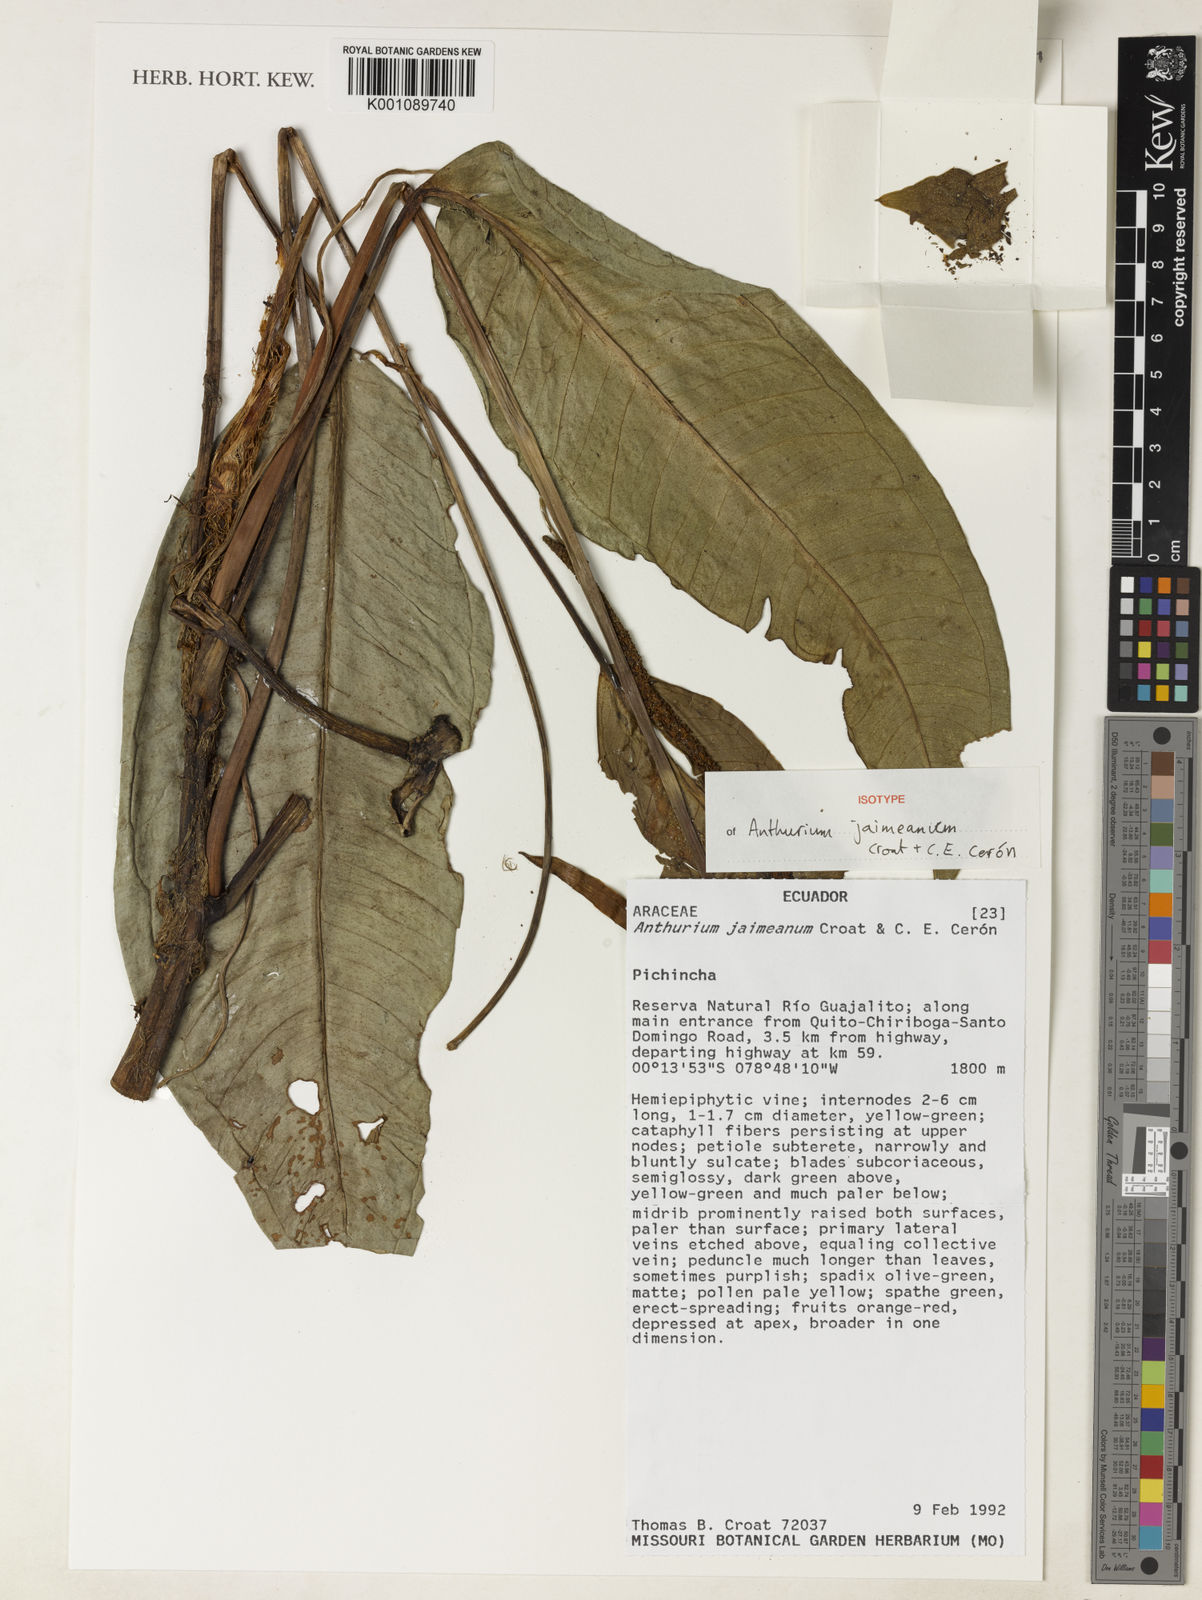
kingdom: Plantae
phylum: Tracheophyta
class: Liliopsida
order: Alismatales
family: Araceae
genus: Anthurium
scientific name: Anthurium
